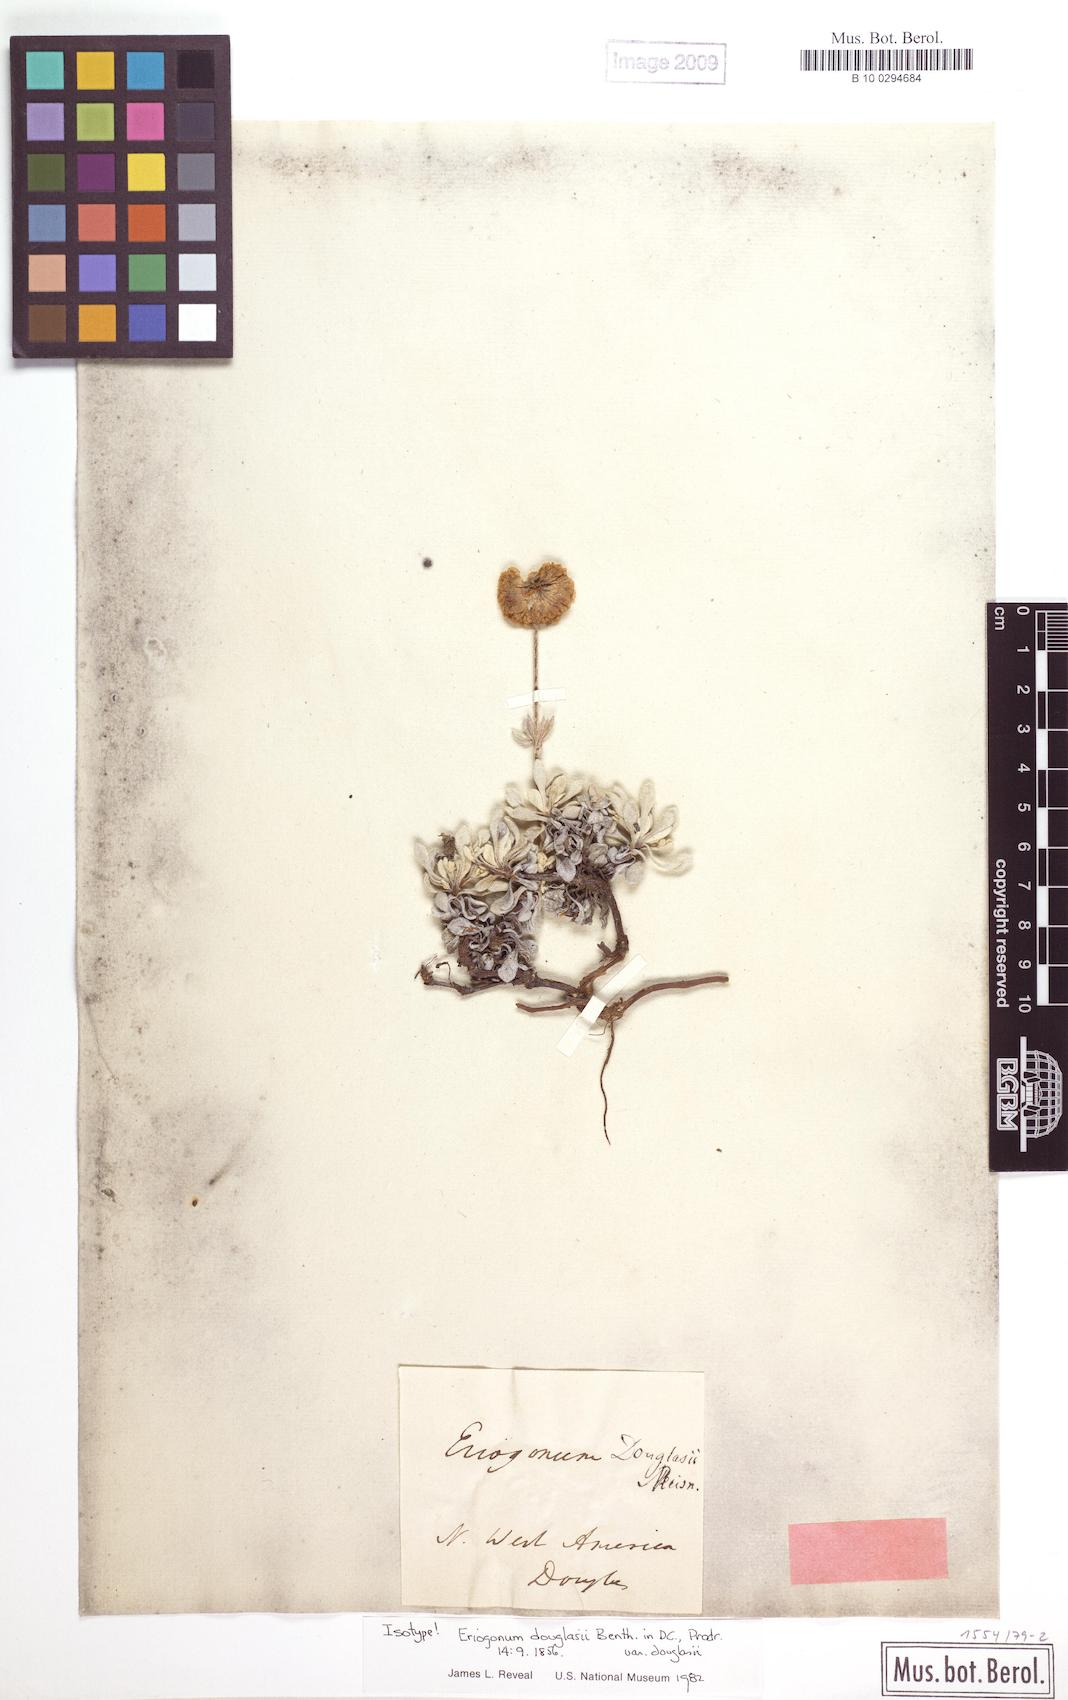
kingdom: Plantae
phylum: Tracheophyta
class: Magnoliopsida
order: Caryophyllales
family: Polygonaceae
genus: Eriogonum
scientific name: Eriogonum douglasii
